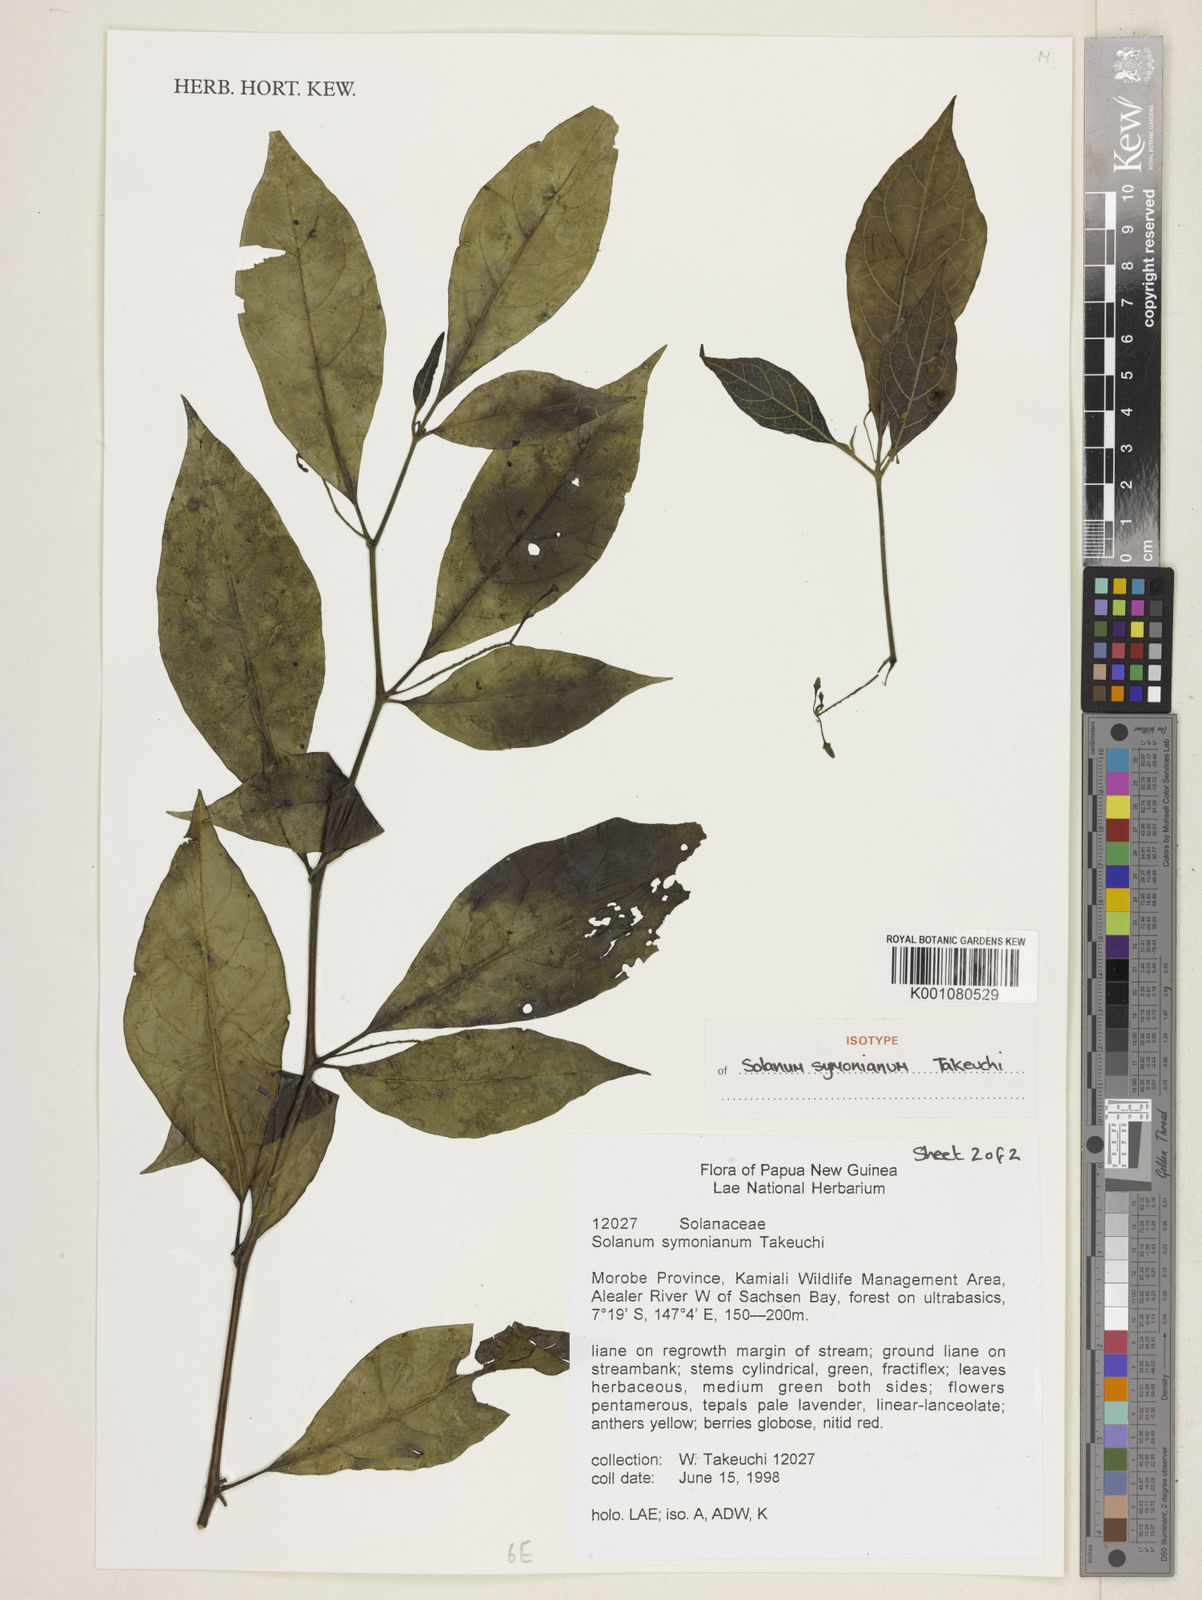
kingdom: Plantae
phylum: Tracheophyta
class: Magnoliopsida
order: Solanales
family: Solanaceae
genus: Solanum
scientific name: Solanum symonianum
